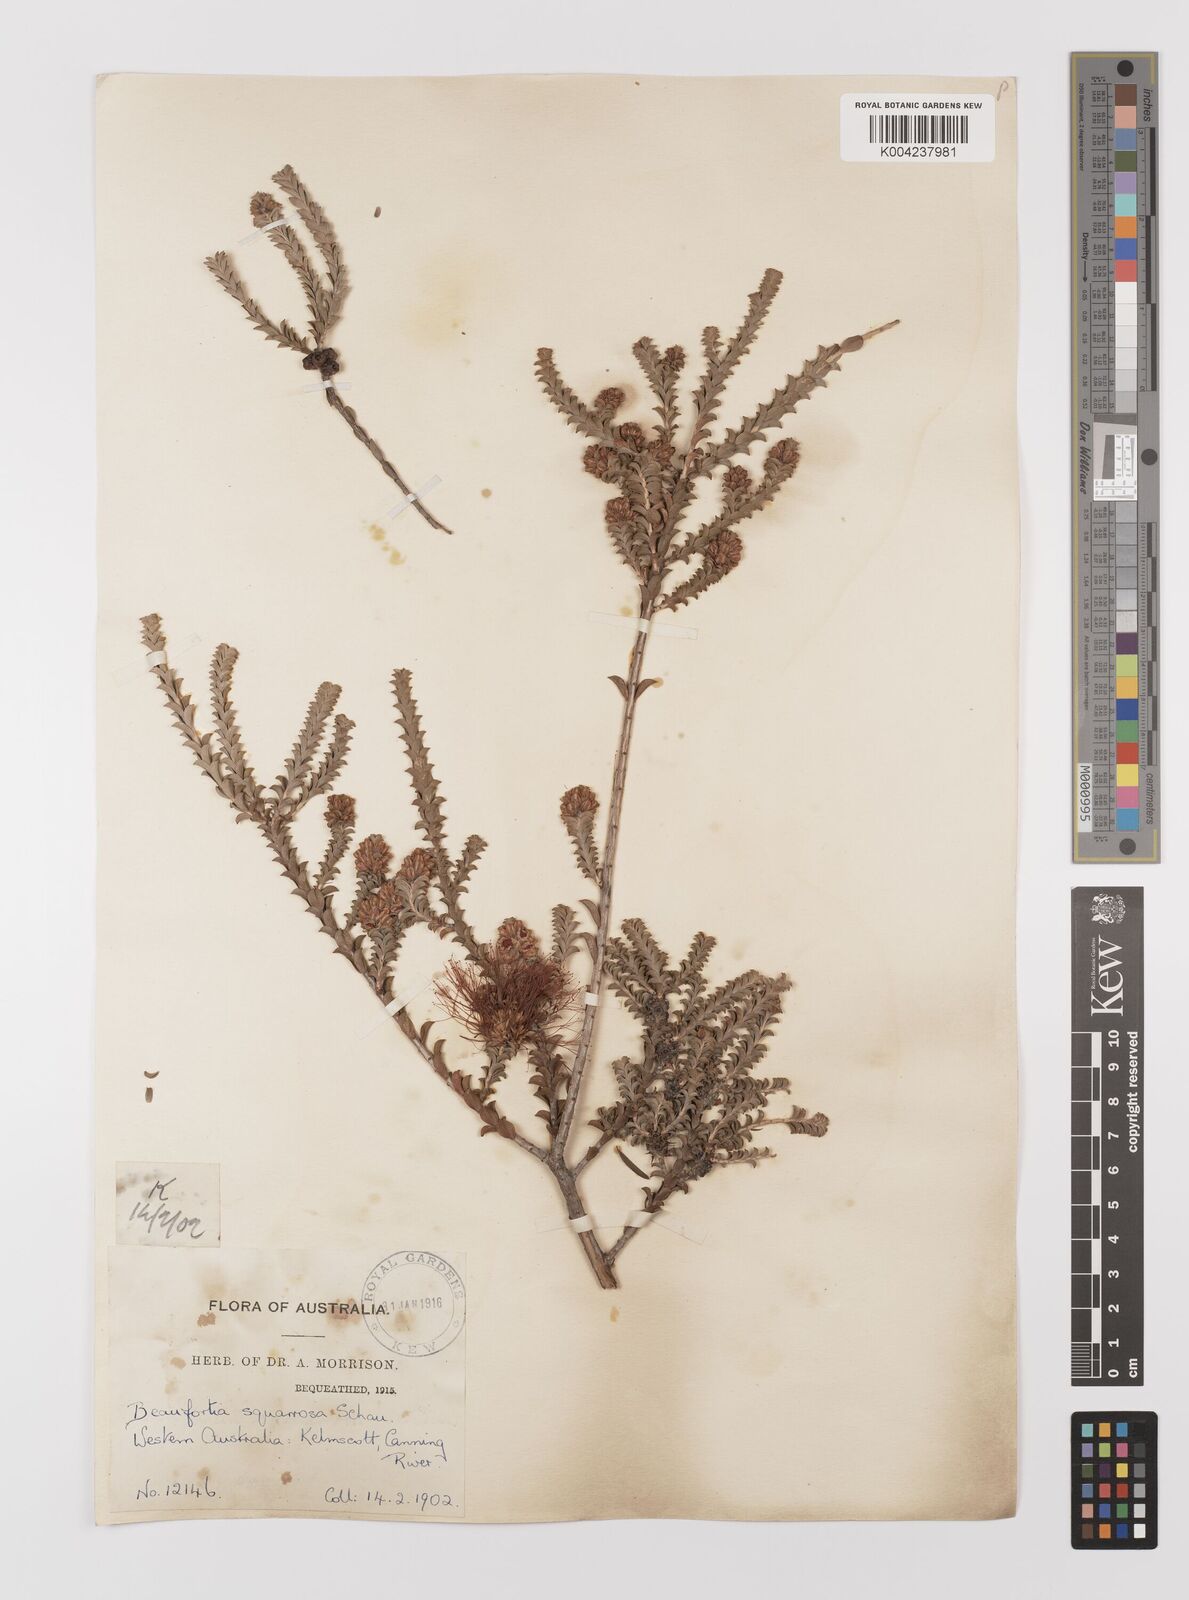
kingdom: Plantae
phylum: Tracheophyta
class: Magnoliopsida
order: Myrtales
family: Myrtaceae
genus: Melaleuca
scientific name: Melaleuca pulcherrima
